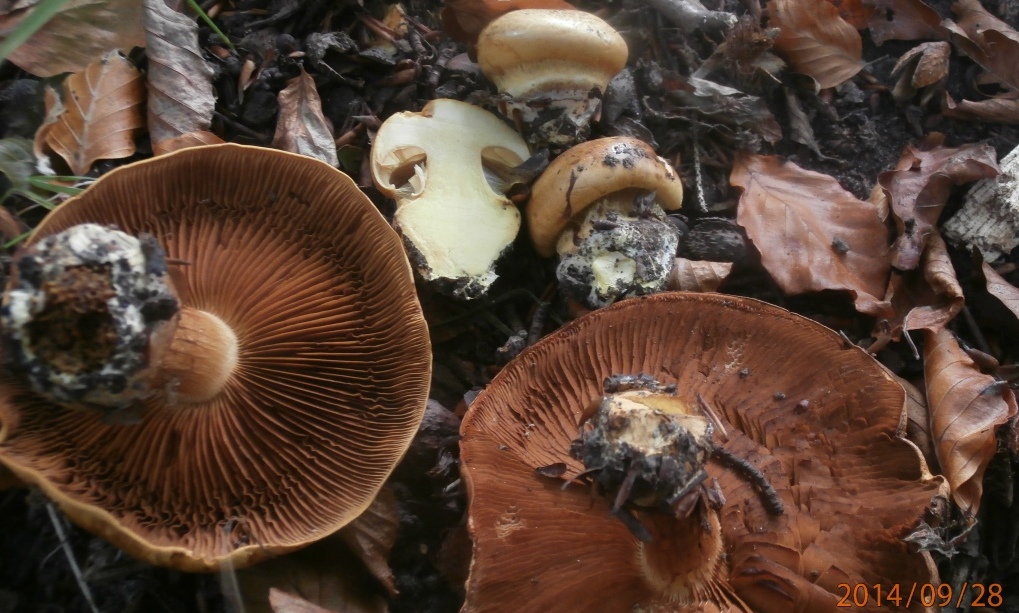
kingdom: Fungi
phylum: Basidiomycota
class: Agaricomycetes
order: Agaricales
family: Cortinariaceae
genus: Calonarius
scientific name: Calonarius olearioides
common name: safran-slørhat
